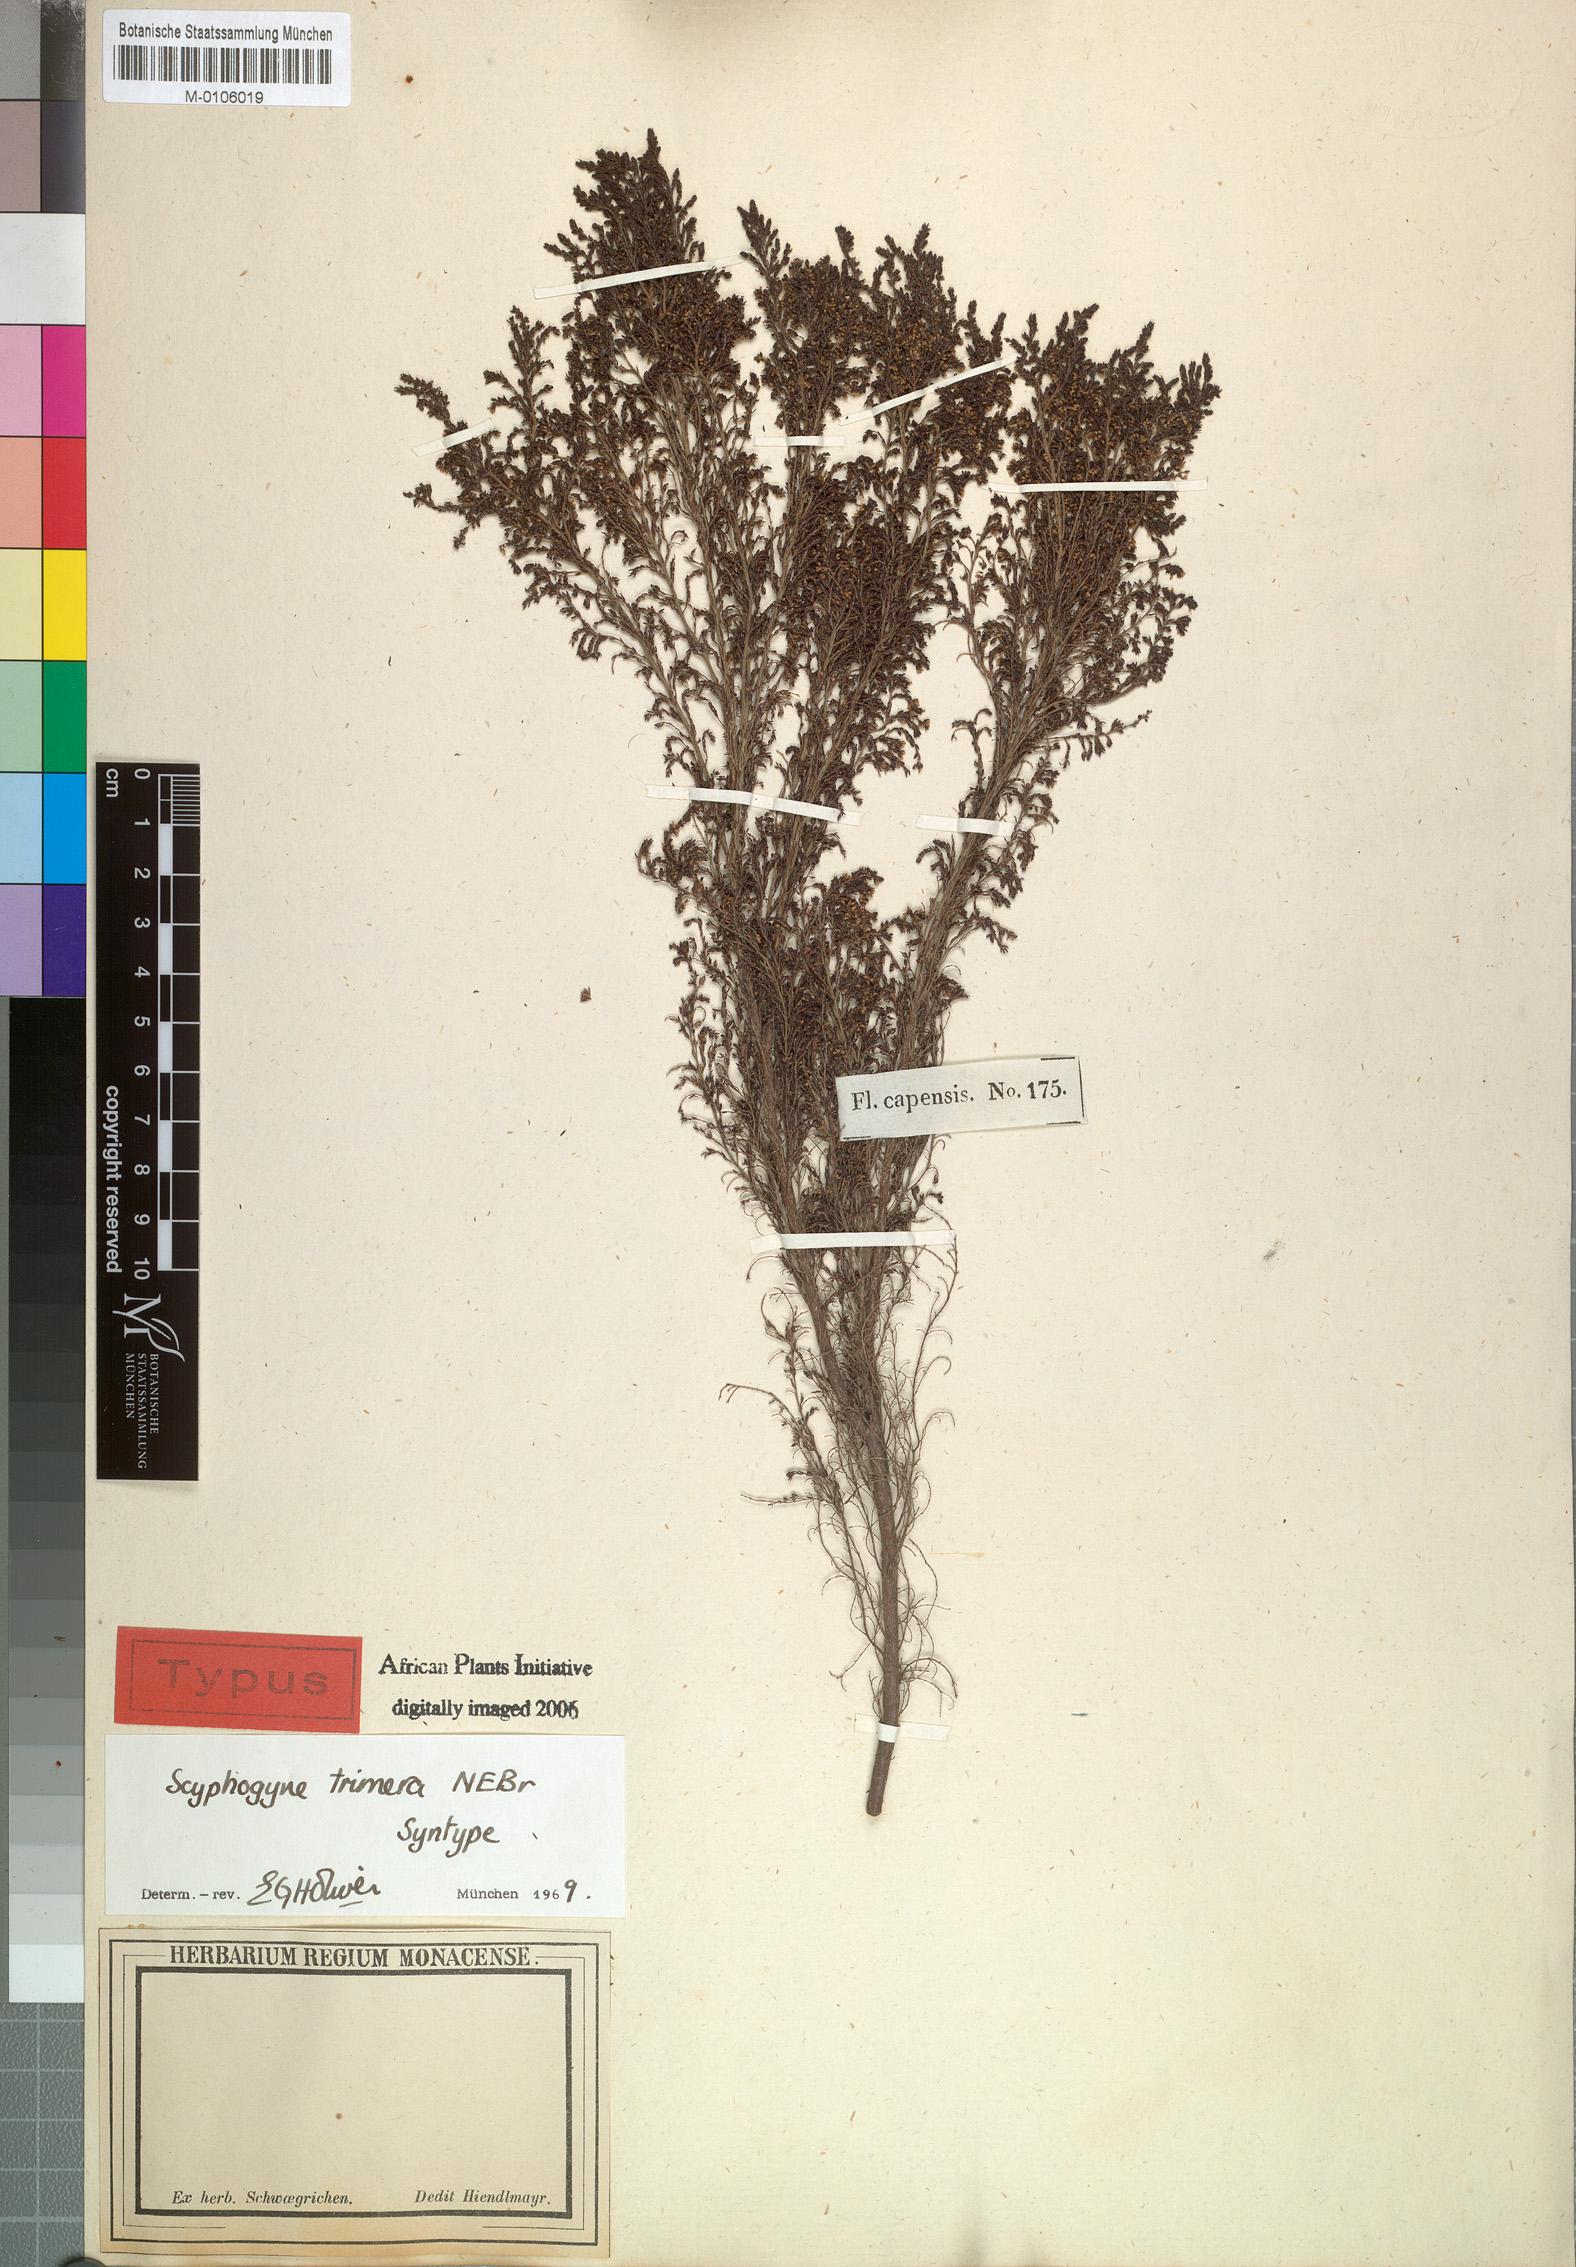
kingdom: Plantae
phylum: Tracheophyta
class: Magnoliopsida
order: Ericales
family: Ericaceae
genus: Erica
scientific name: Erica urceolata
